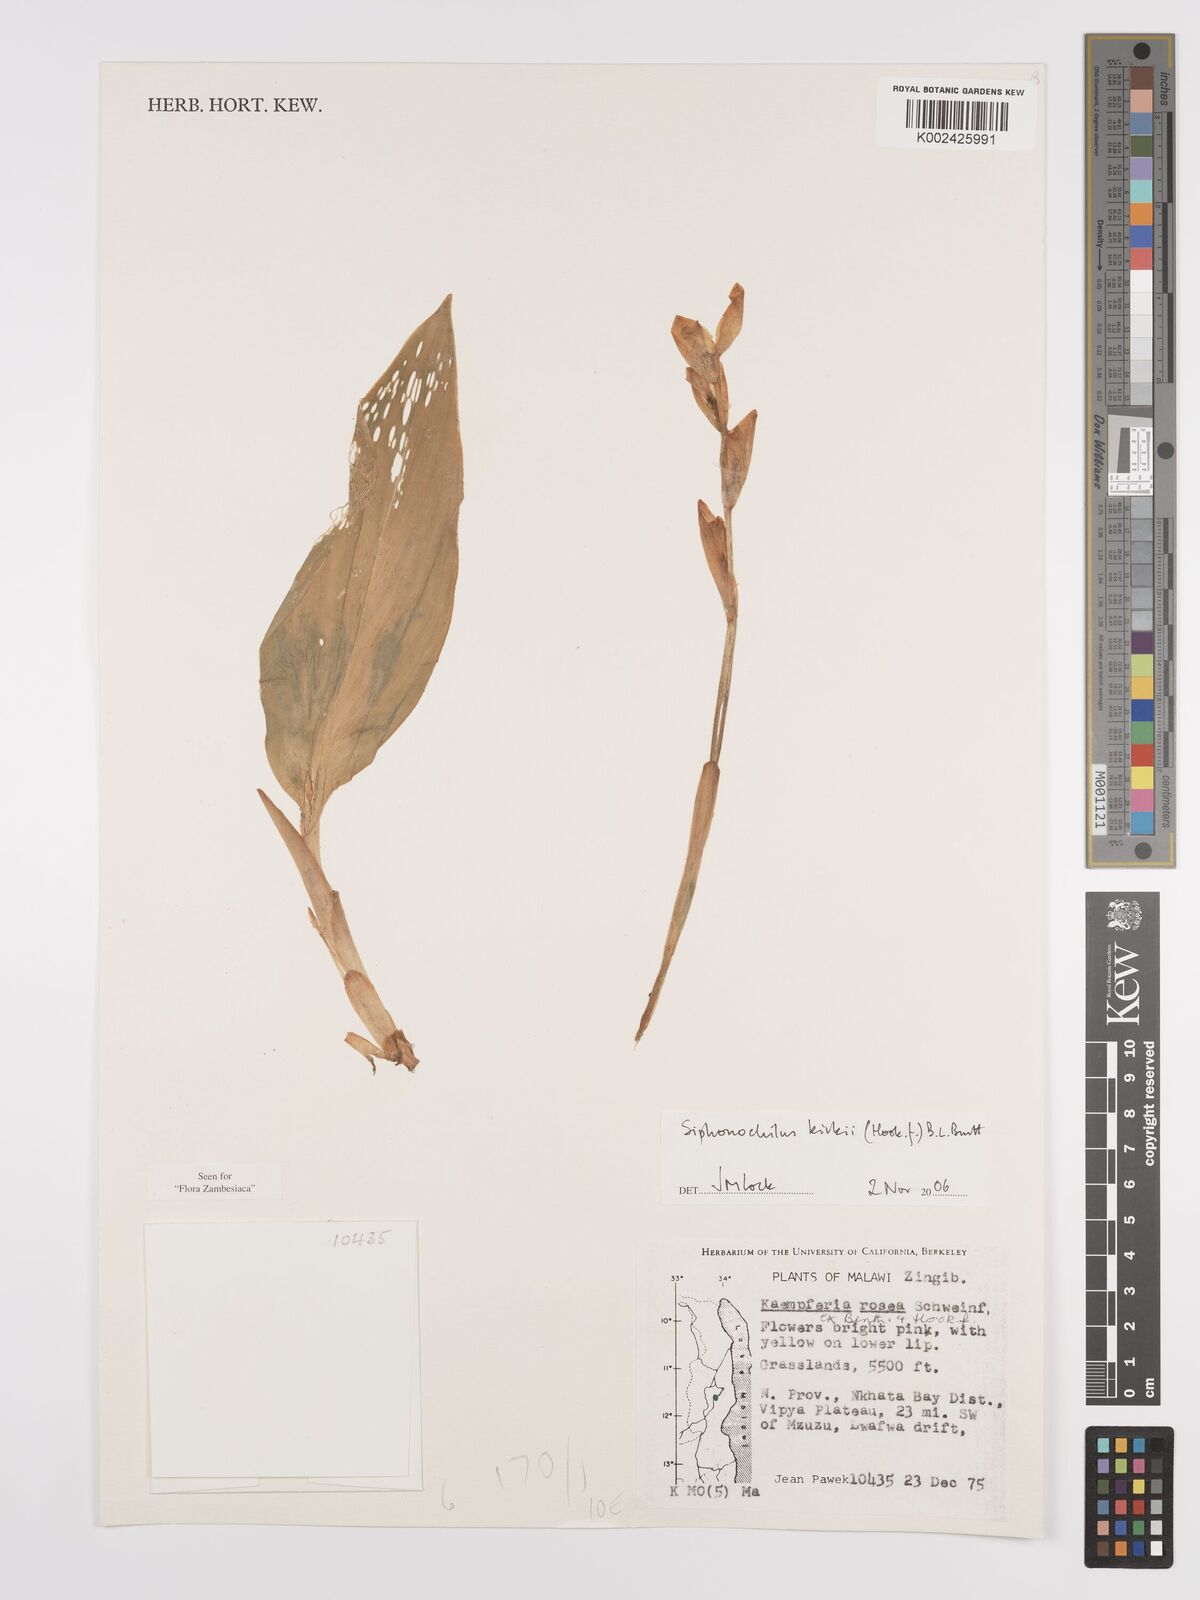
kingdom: Plantae
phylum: Tracheophyta
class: Liliopsida
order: Zingiberales
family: Zingiberaceae
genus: Siphonochilus
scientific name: Siphonochilus kirkii
